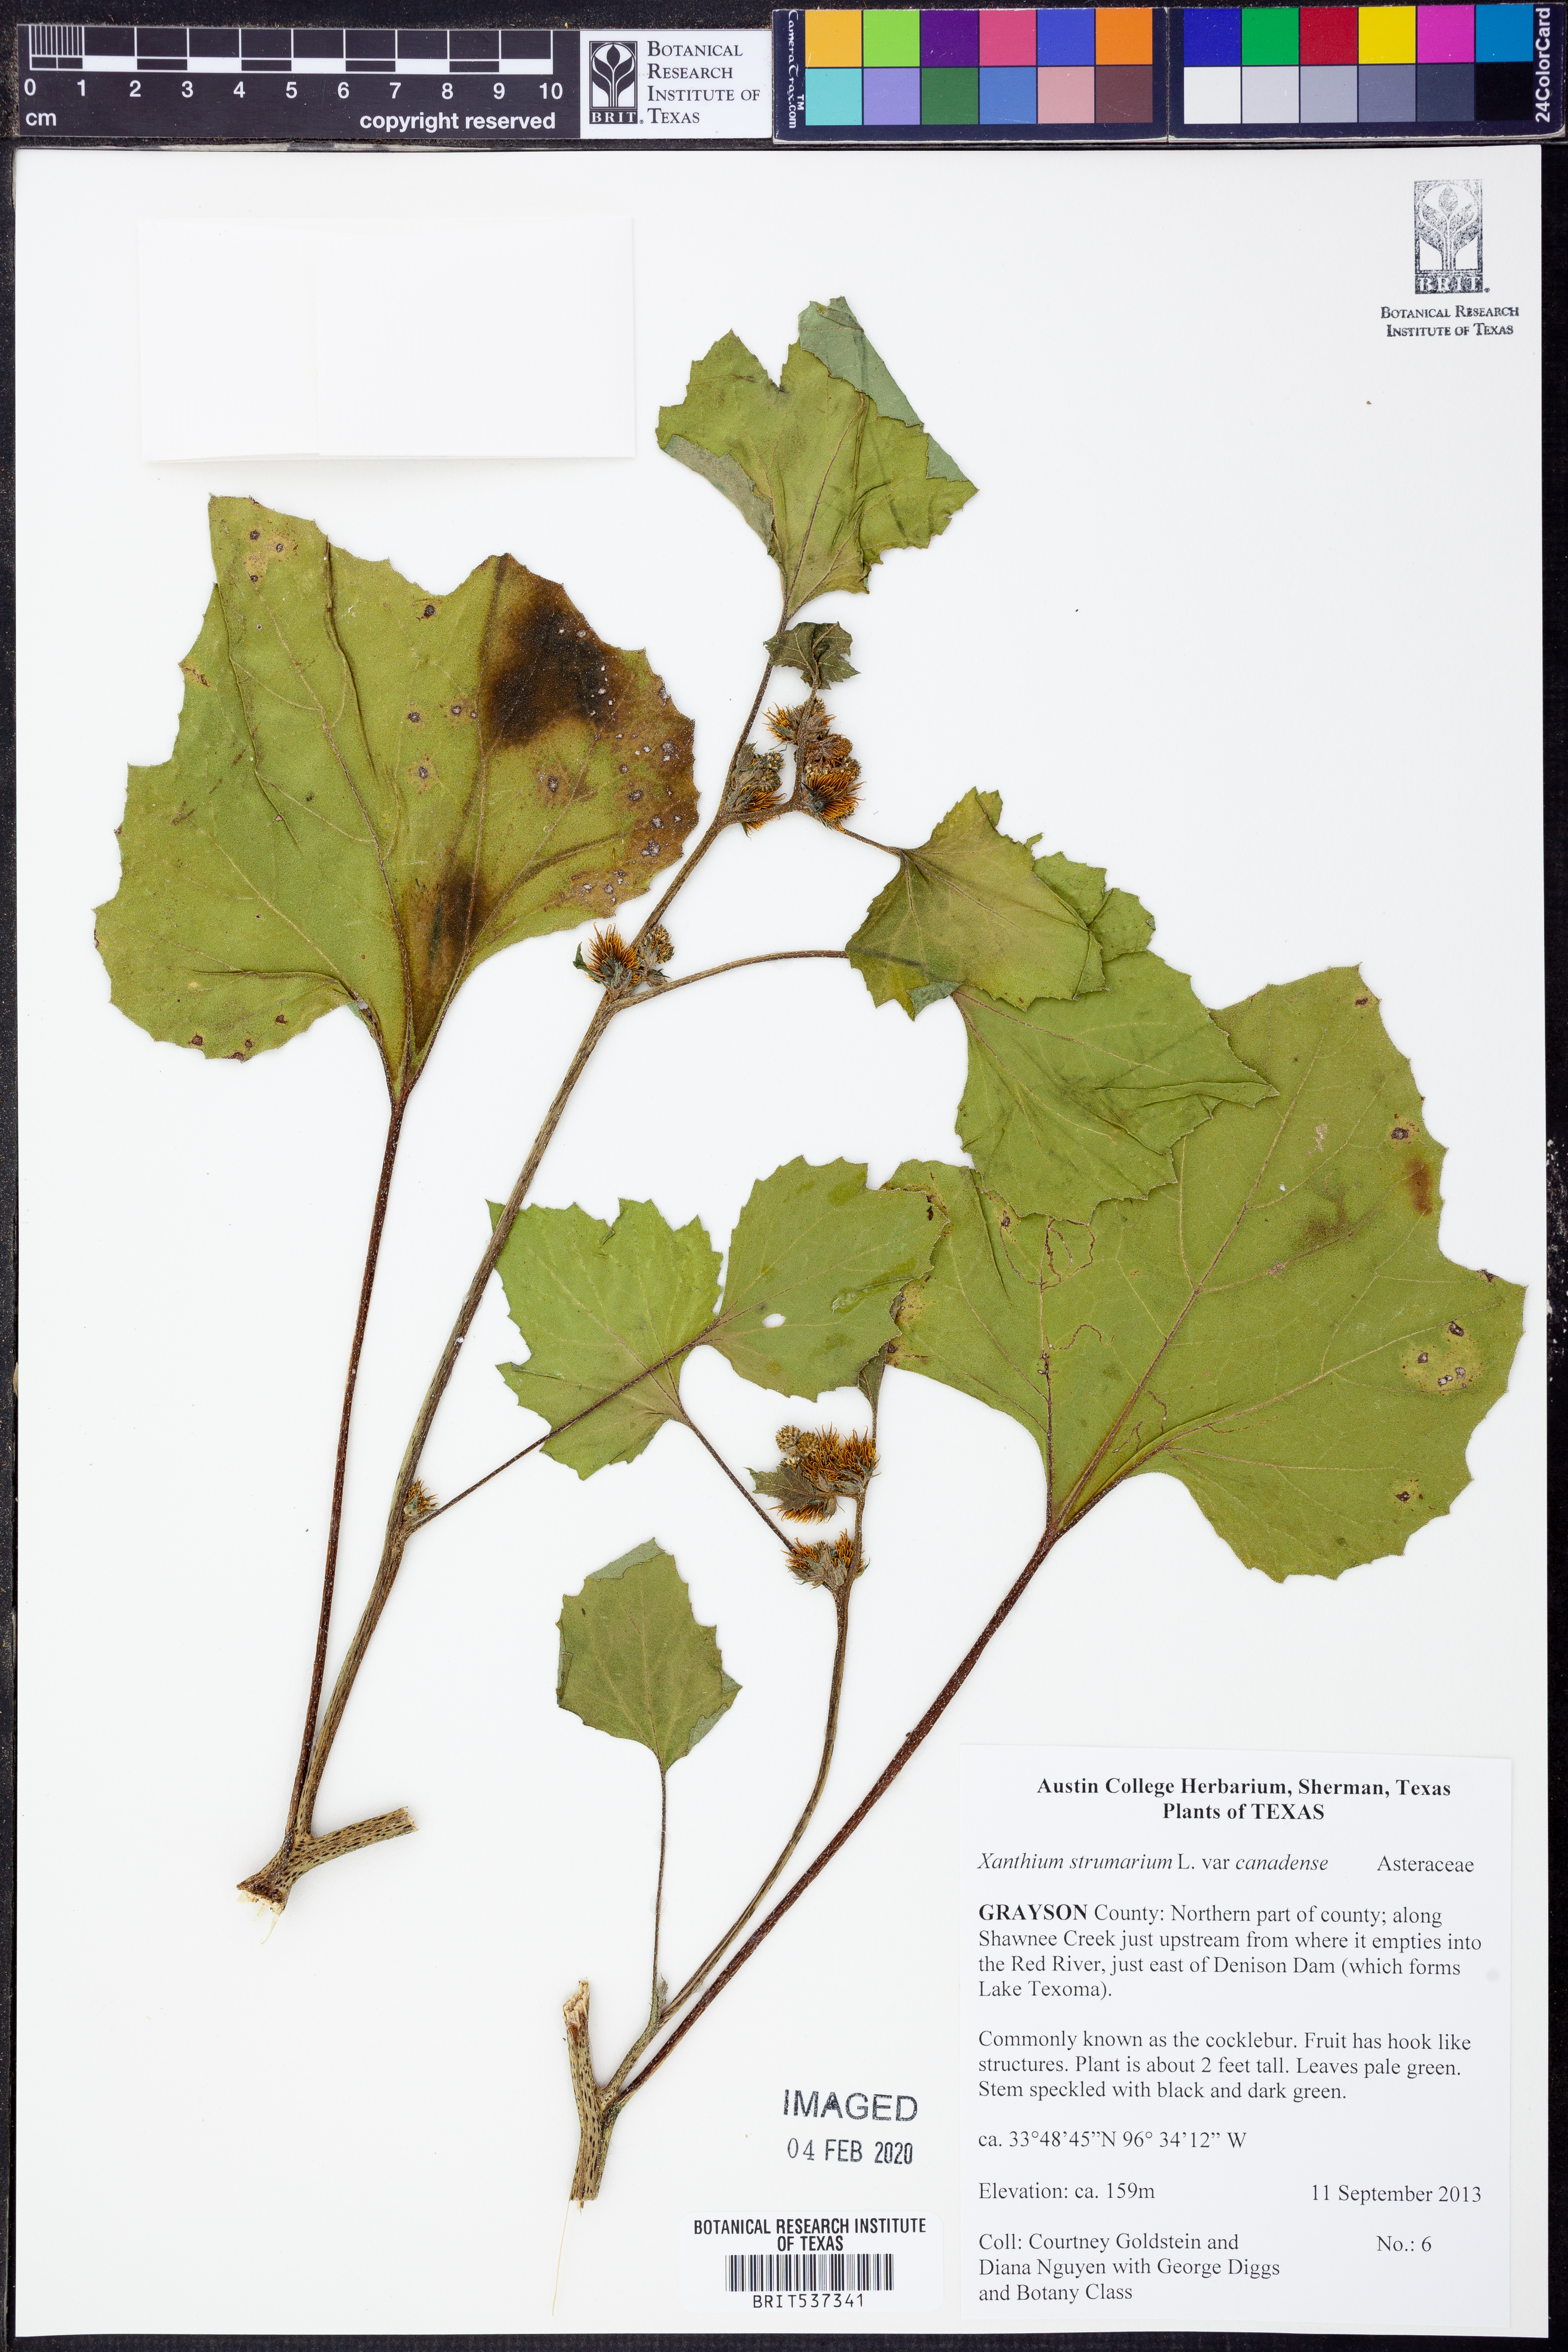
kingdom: Plantae
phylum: Tracheophyta
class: Magnoliopsida
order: Asterales
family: Asteraceae
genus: Xanthium
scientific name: Xanthium orientale
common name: Californian burr
